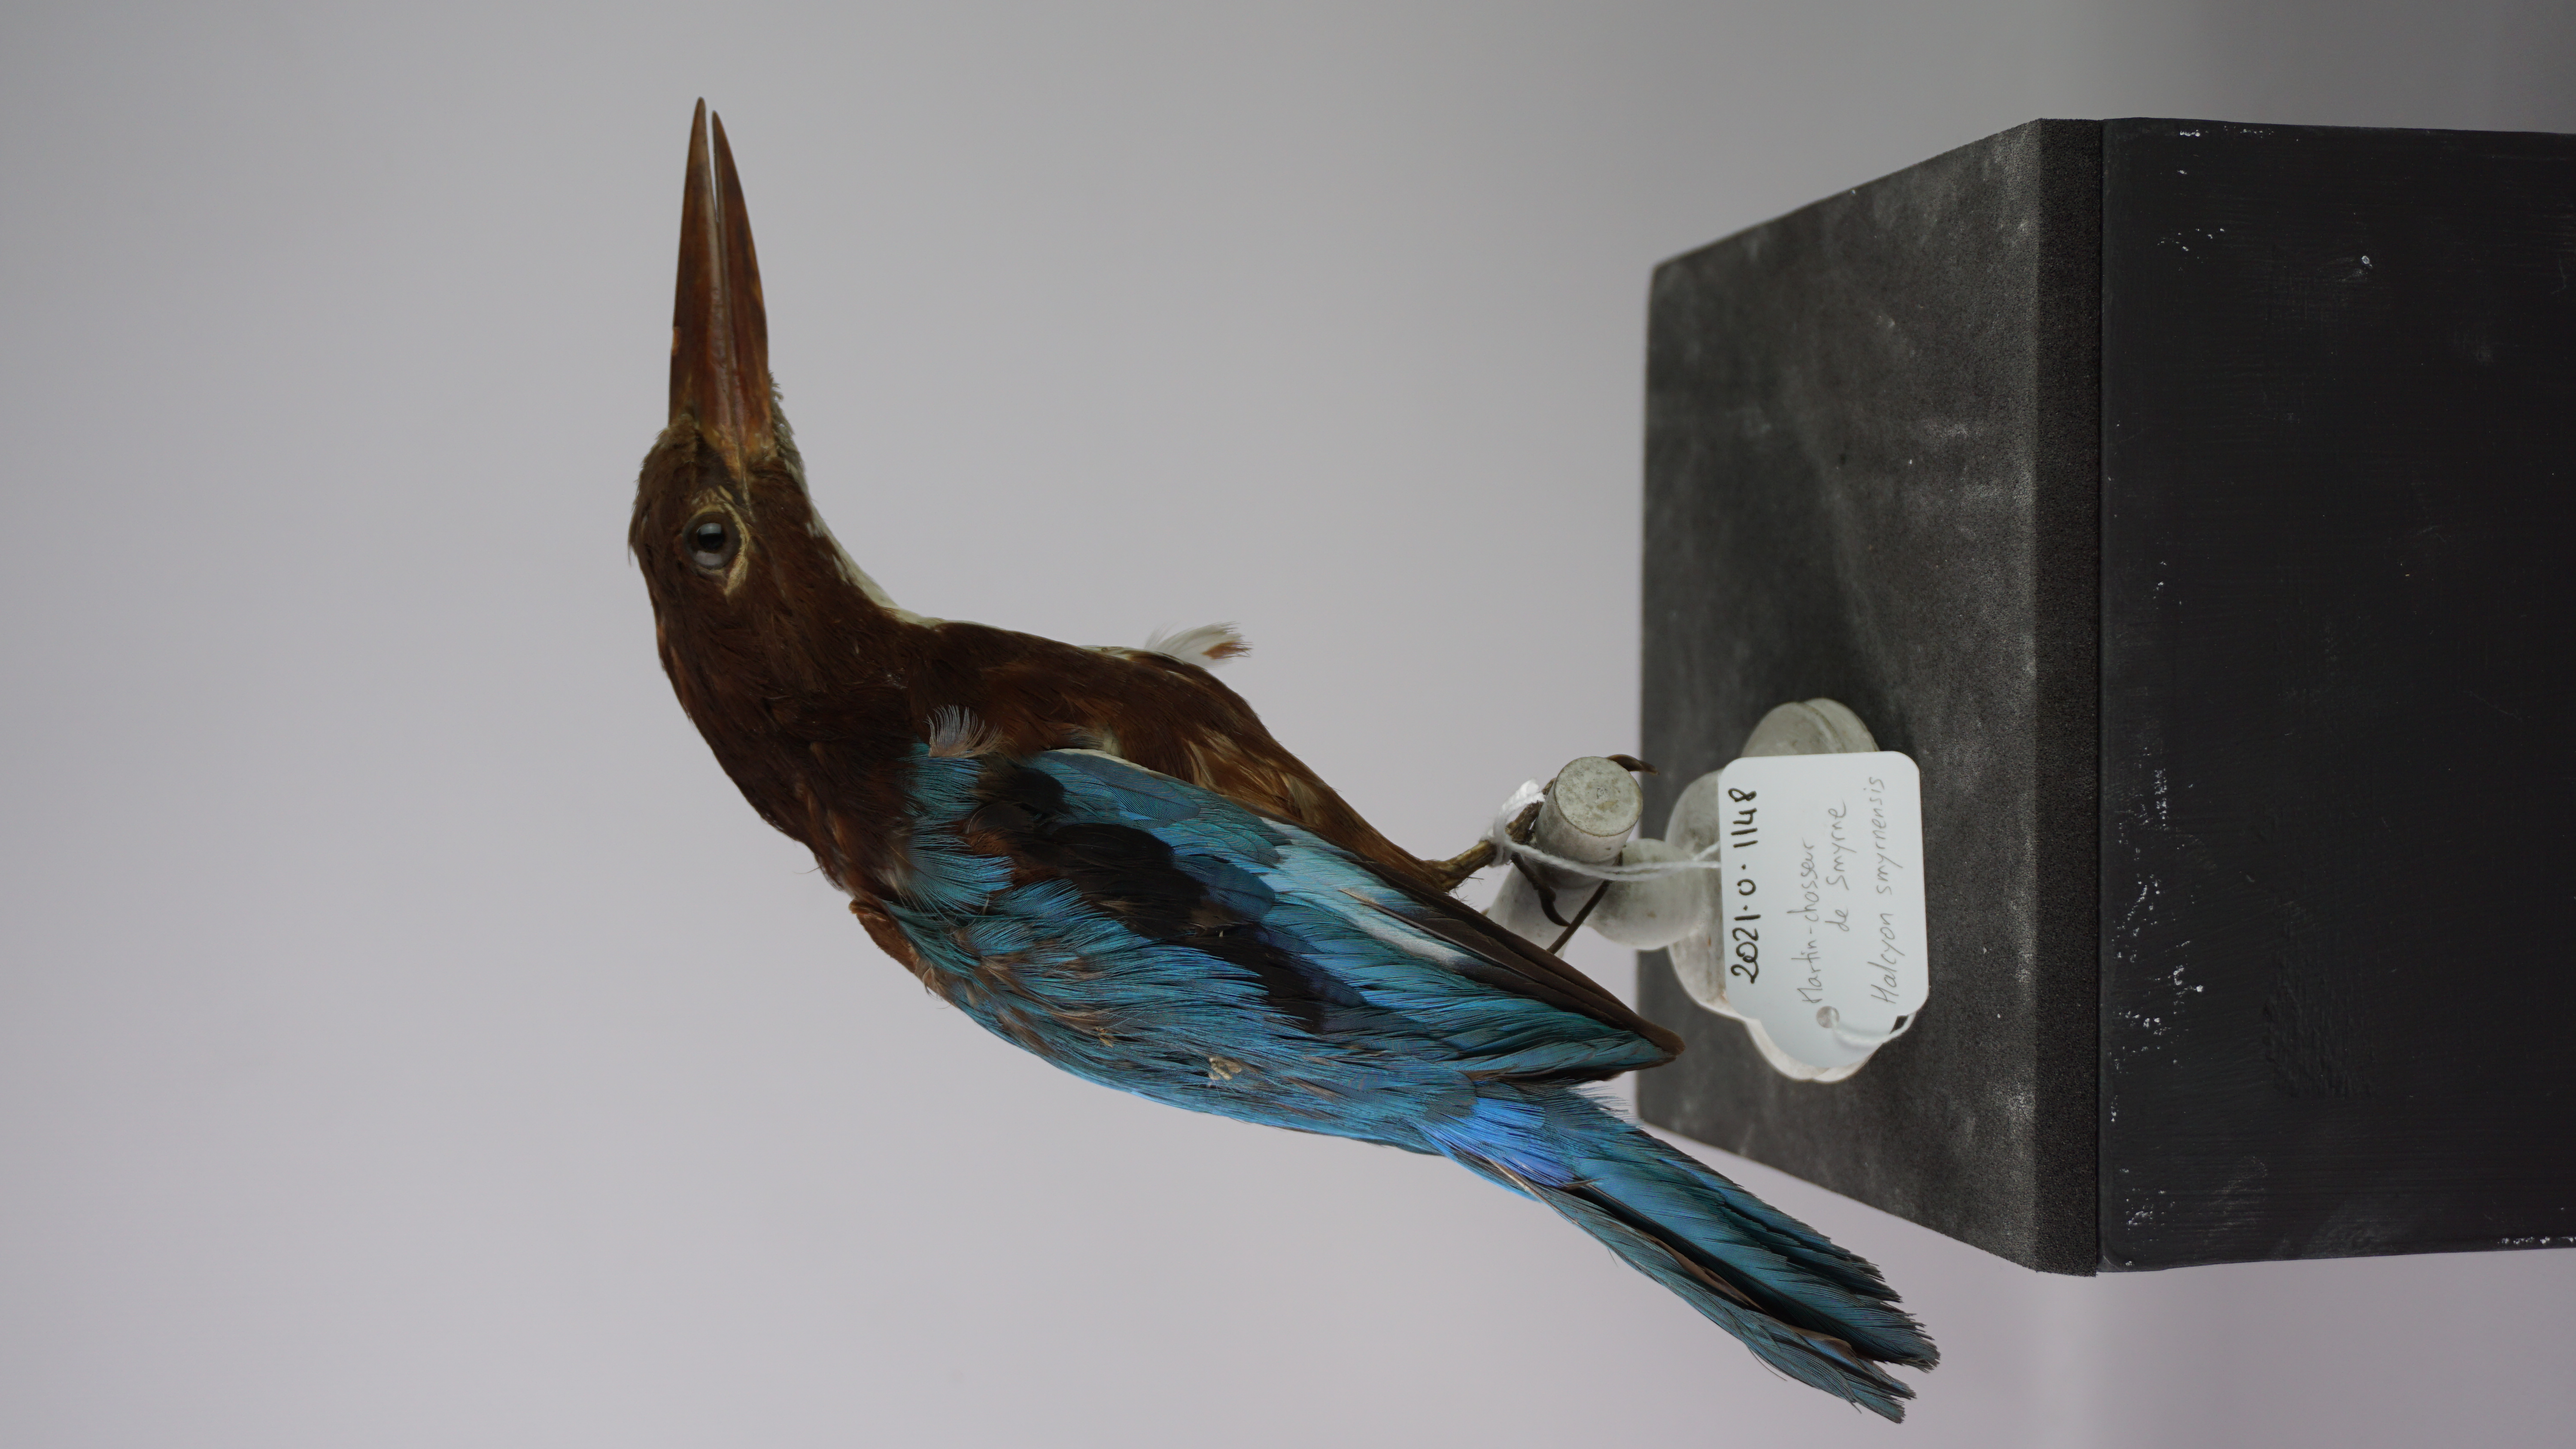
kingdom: Animalia
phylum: Chordata
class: Aves
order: Coraciiformes
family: Alcedinidae
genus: Halcyon
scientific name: Halcyon smyrnensis
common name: White-throated kingfisher
